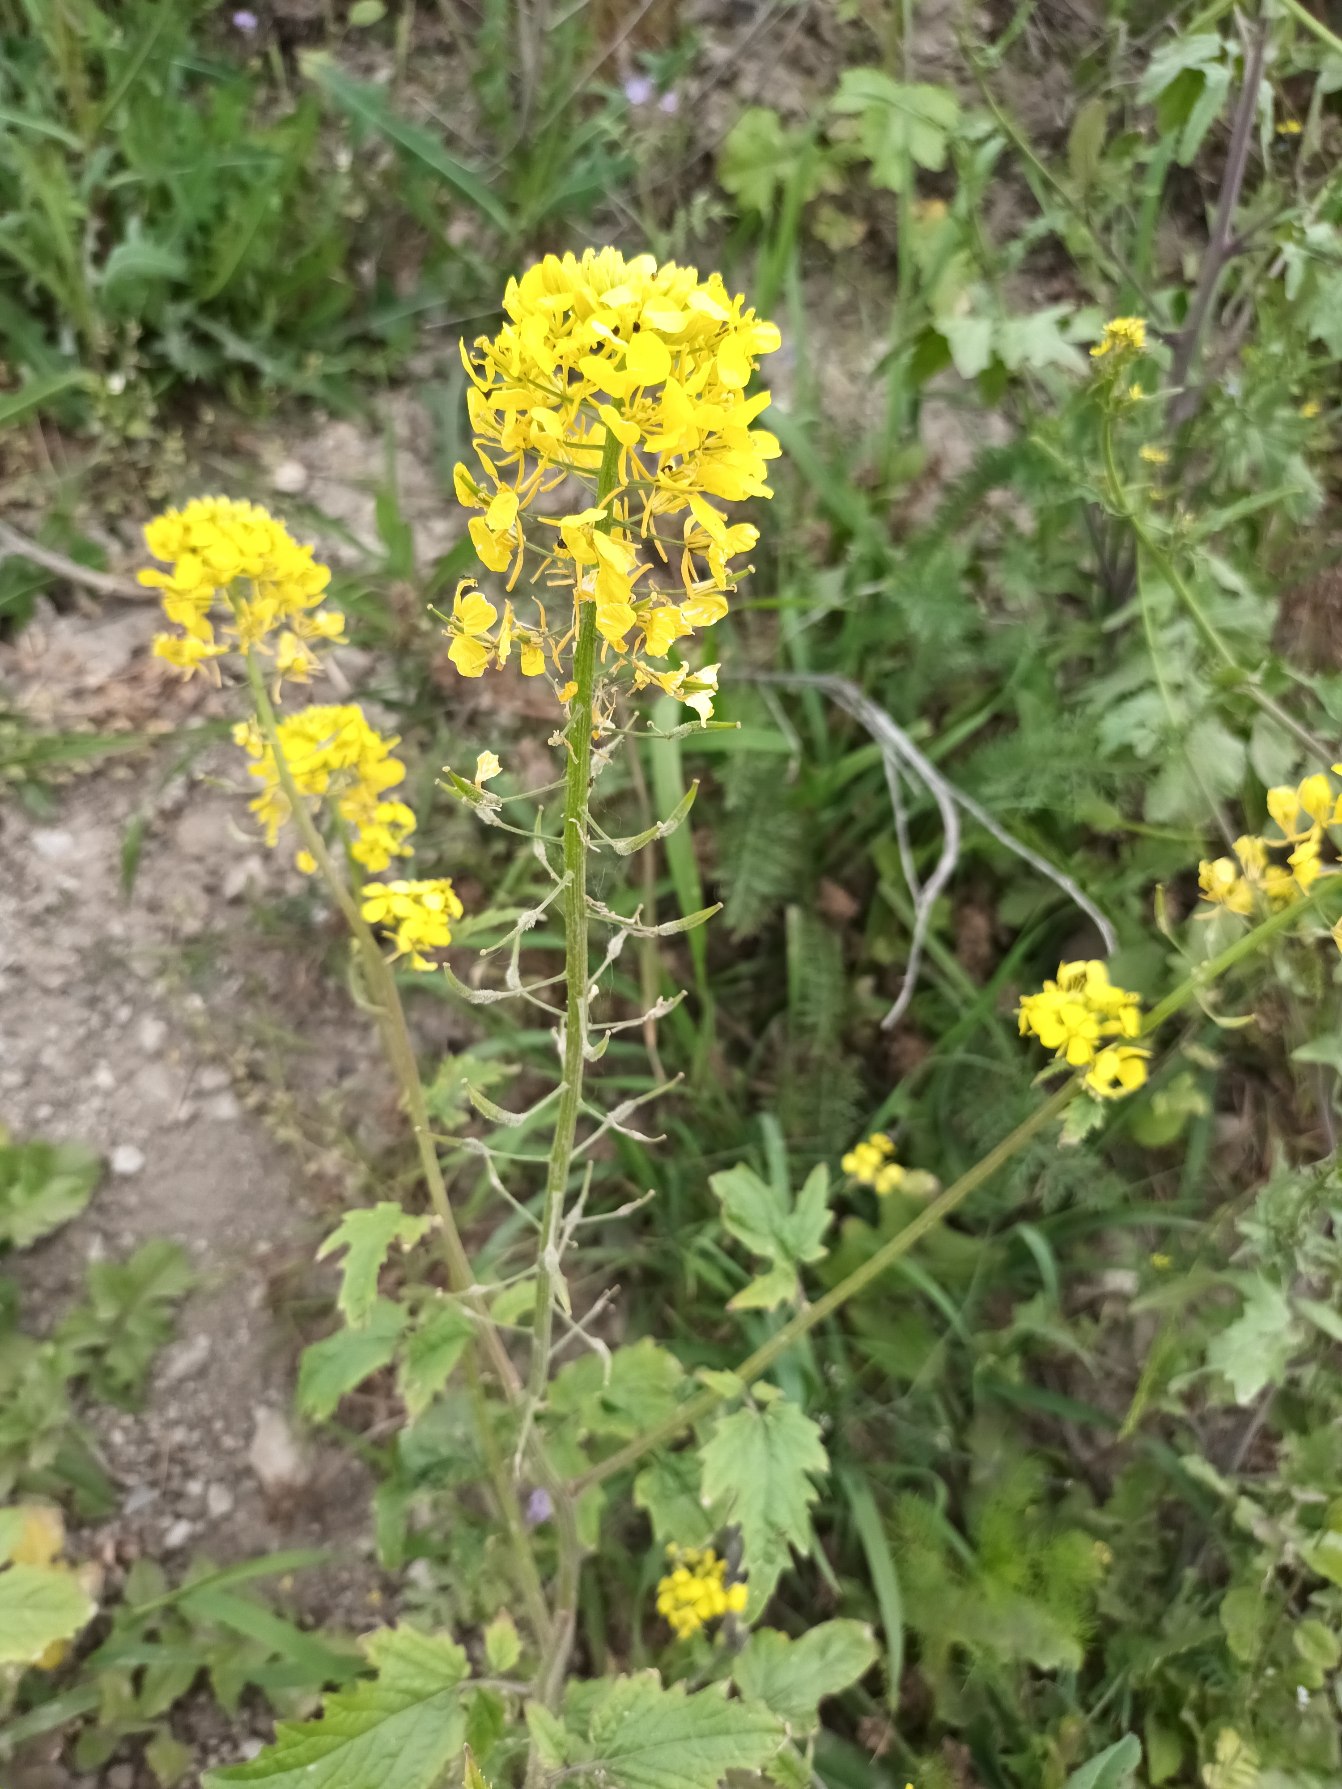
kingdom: Plantae
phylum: Tracheophyta
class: Magnoliopsida
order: Brassicales
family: Brassicaceae
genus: Sinapis
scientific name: Sinapis alba
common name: Gul sennep
